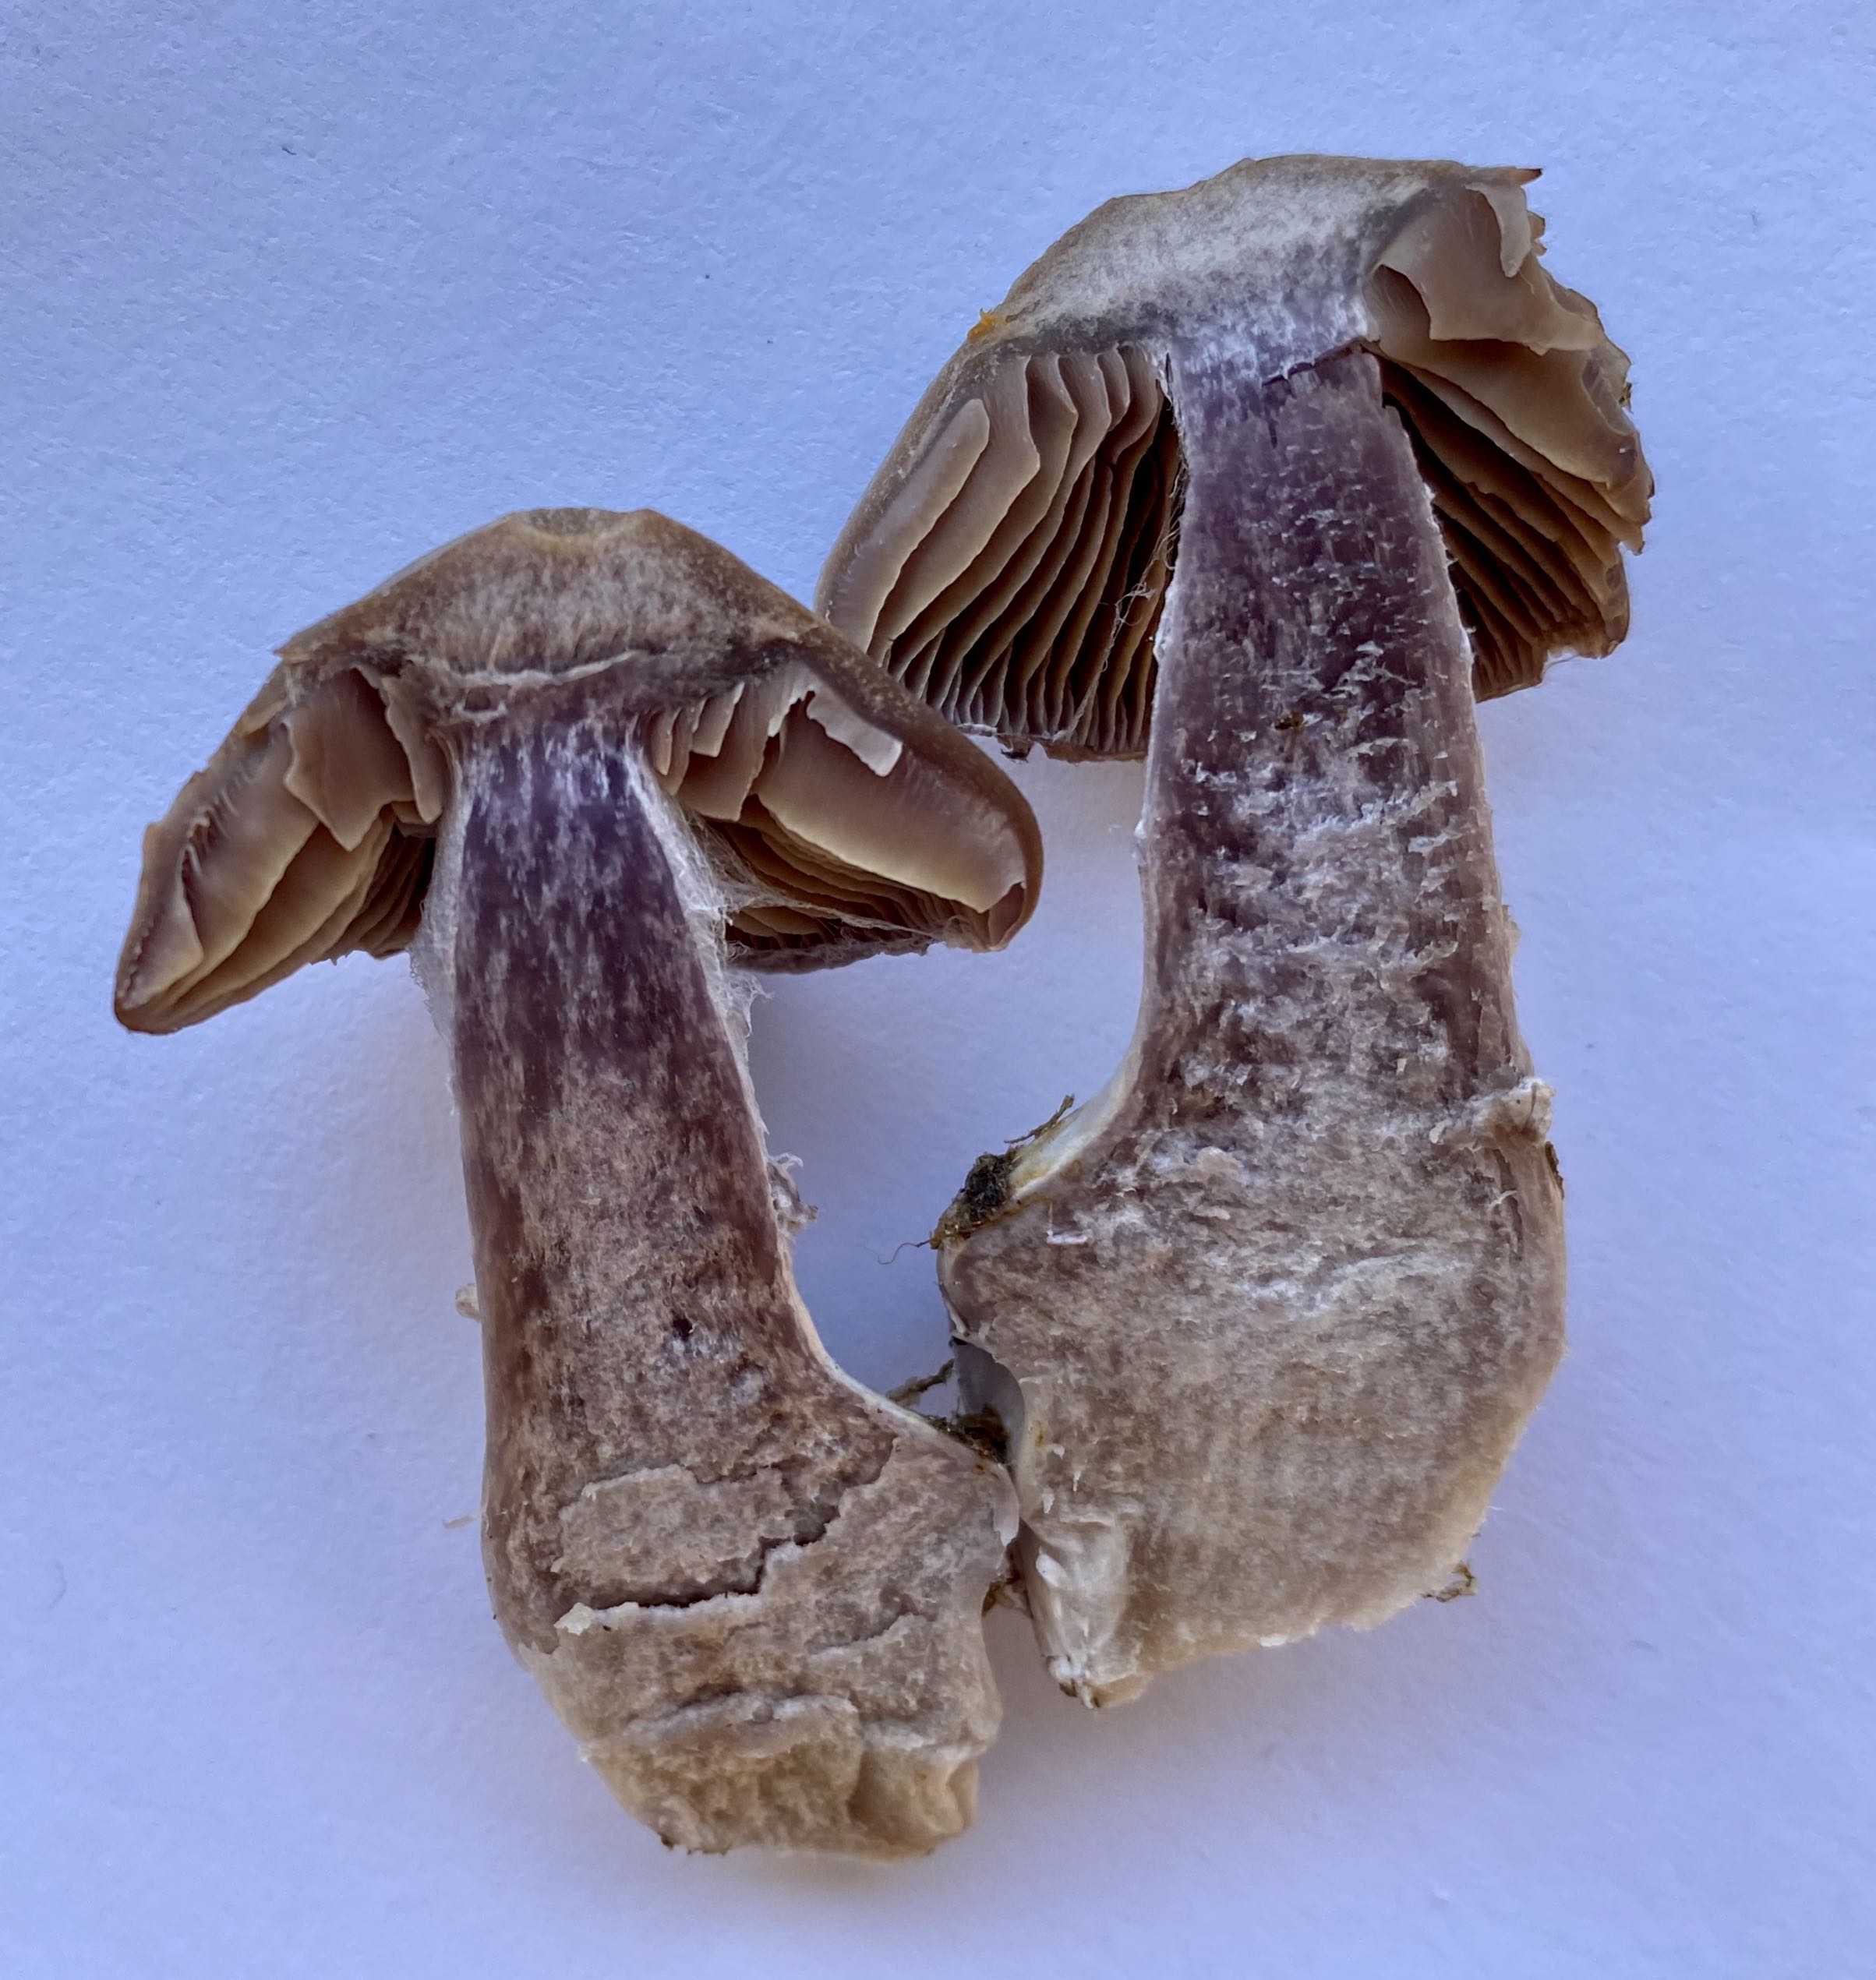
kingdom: Fungi
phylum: Basidiomycota
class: Agaricomycetes
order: Agaricales
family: Cortinariaceae
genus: Cortinarius
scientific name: Cortinarius quarciticus
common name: kvarts-slørhat
